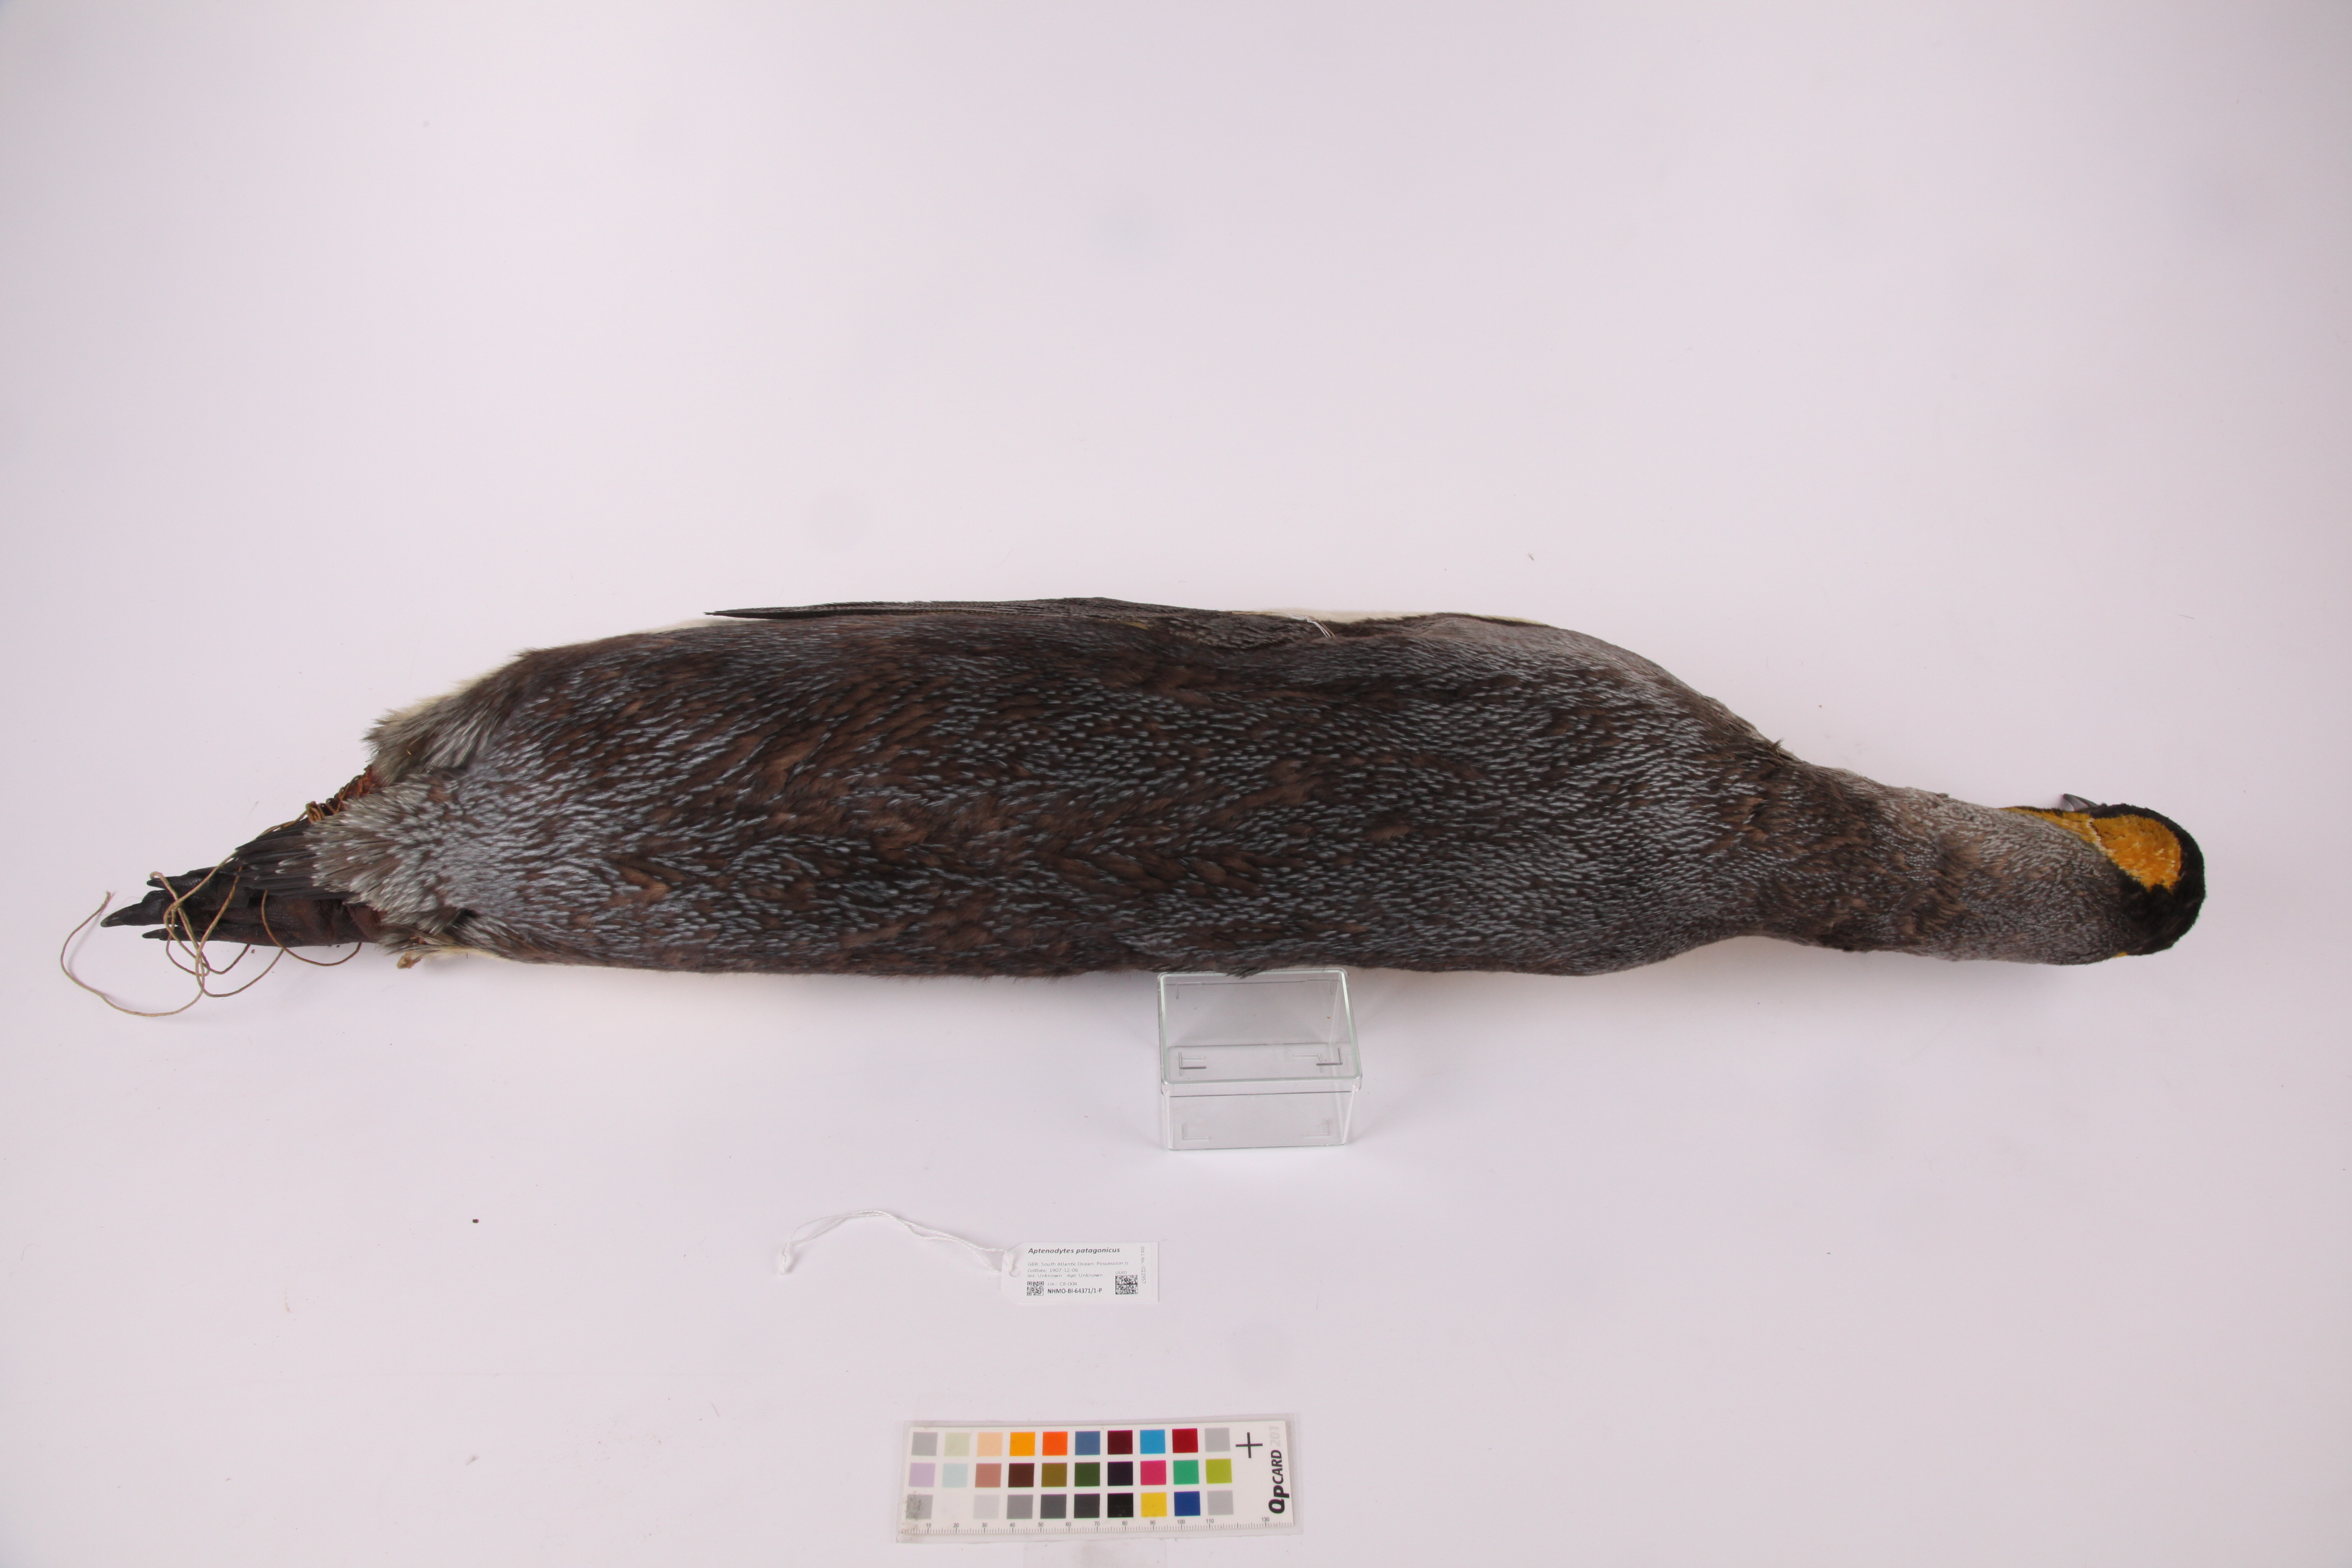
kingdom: Animalia
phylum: Chordata
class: Aves
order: Sphenisciformes
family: Spheniscidae
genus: Aptenodytes
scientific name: Aptenodytes patagonicus
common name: King penguin
